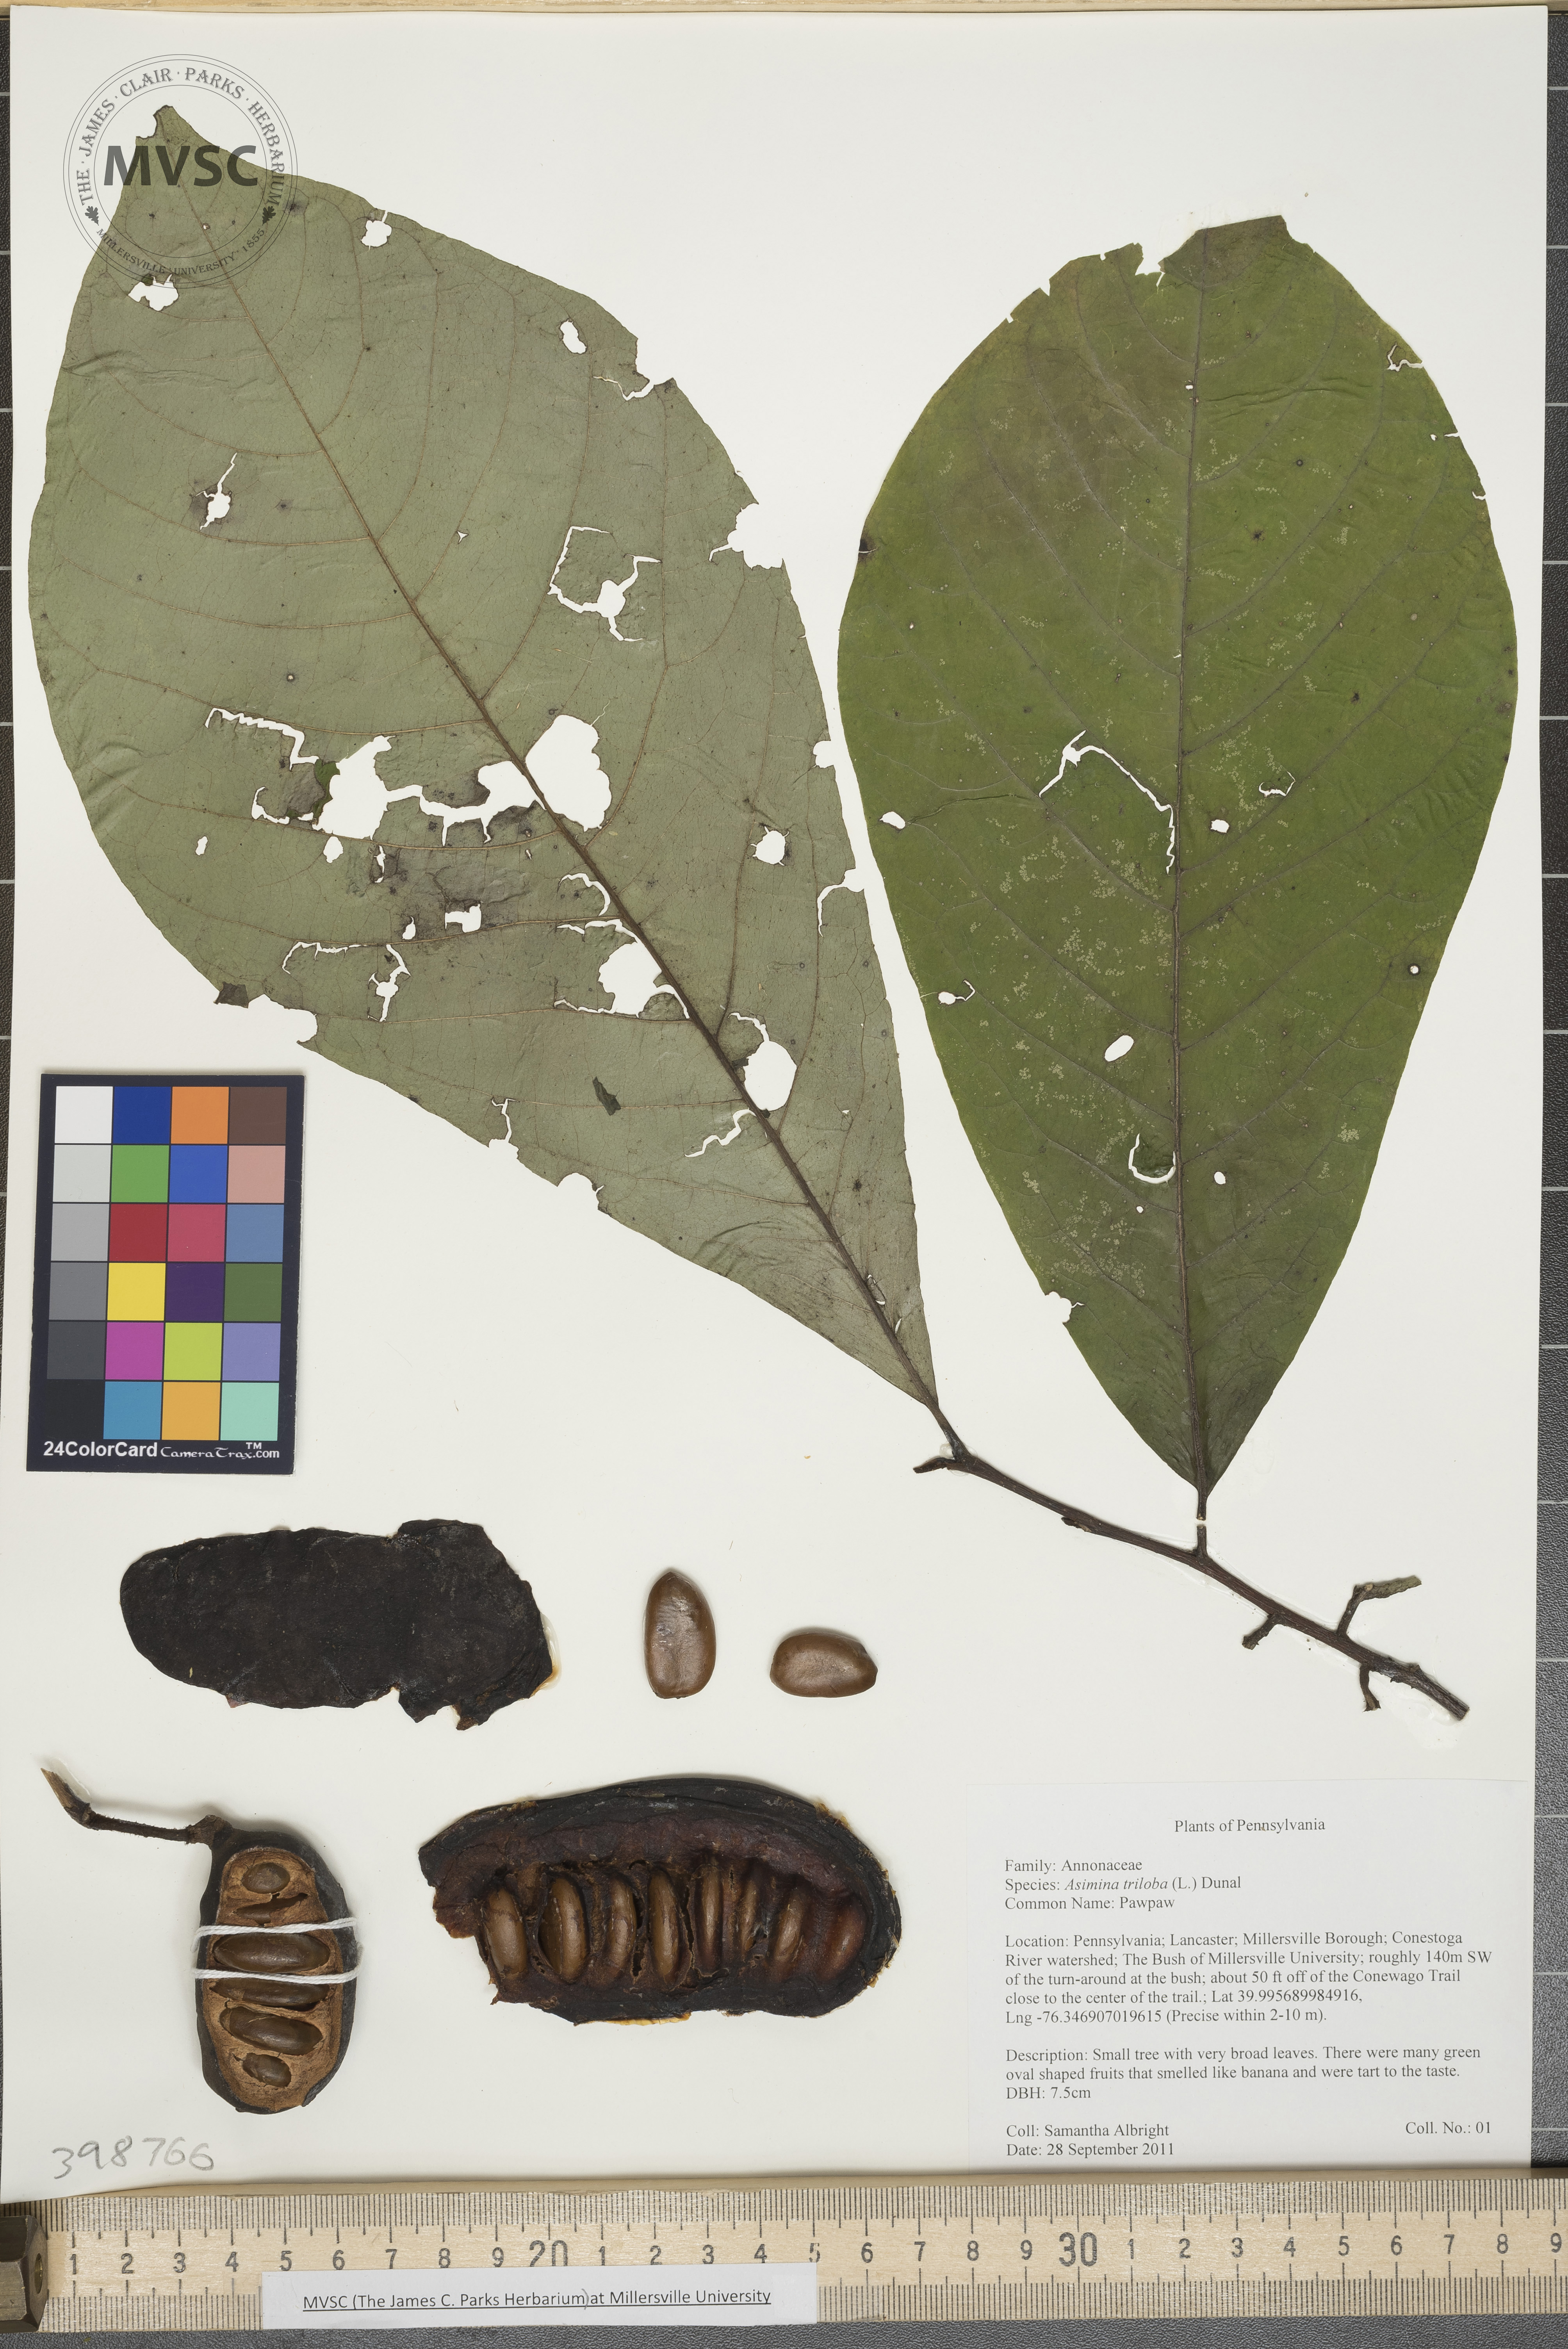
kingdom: Plantae
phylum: Tracheophyta
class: Magnoliopsida
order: Magnoliales
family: Annonaceae
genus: Asimina
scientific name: Asimina triloba
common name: Pawpaw
